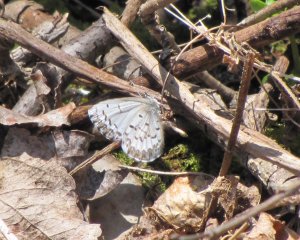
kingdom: Animalia
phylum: Arthropoda
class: Insecta
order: Lepidoptera
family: Lycaenidae
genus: Celastrina
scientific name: Celastrina lucia
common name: Northern Spring Azure
